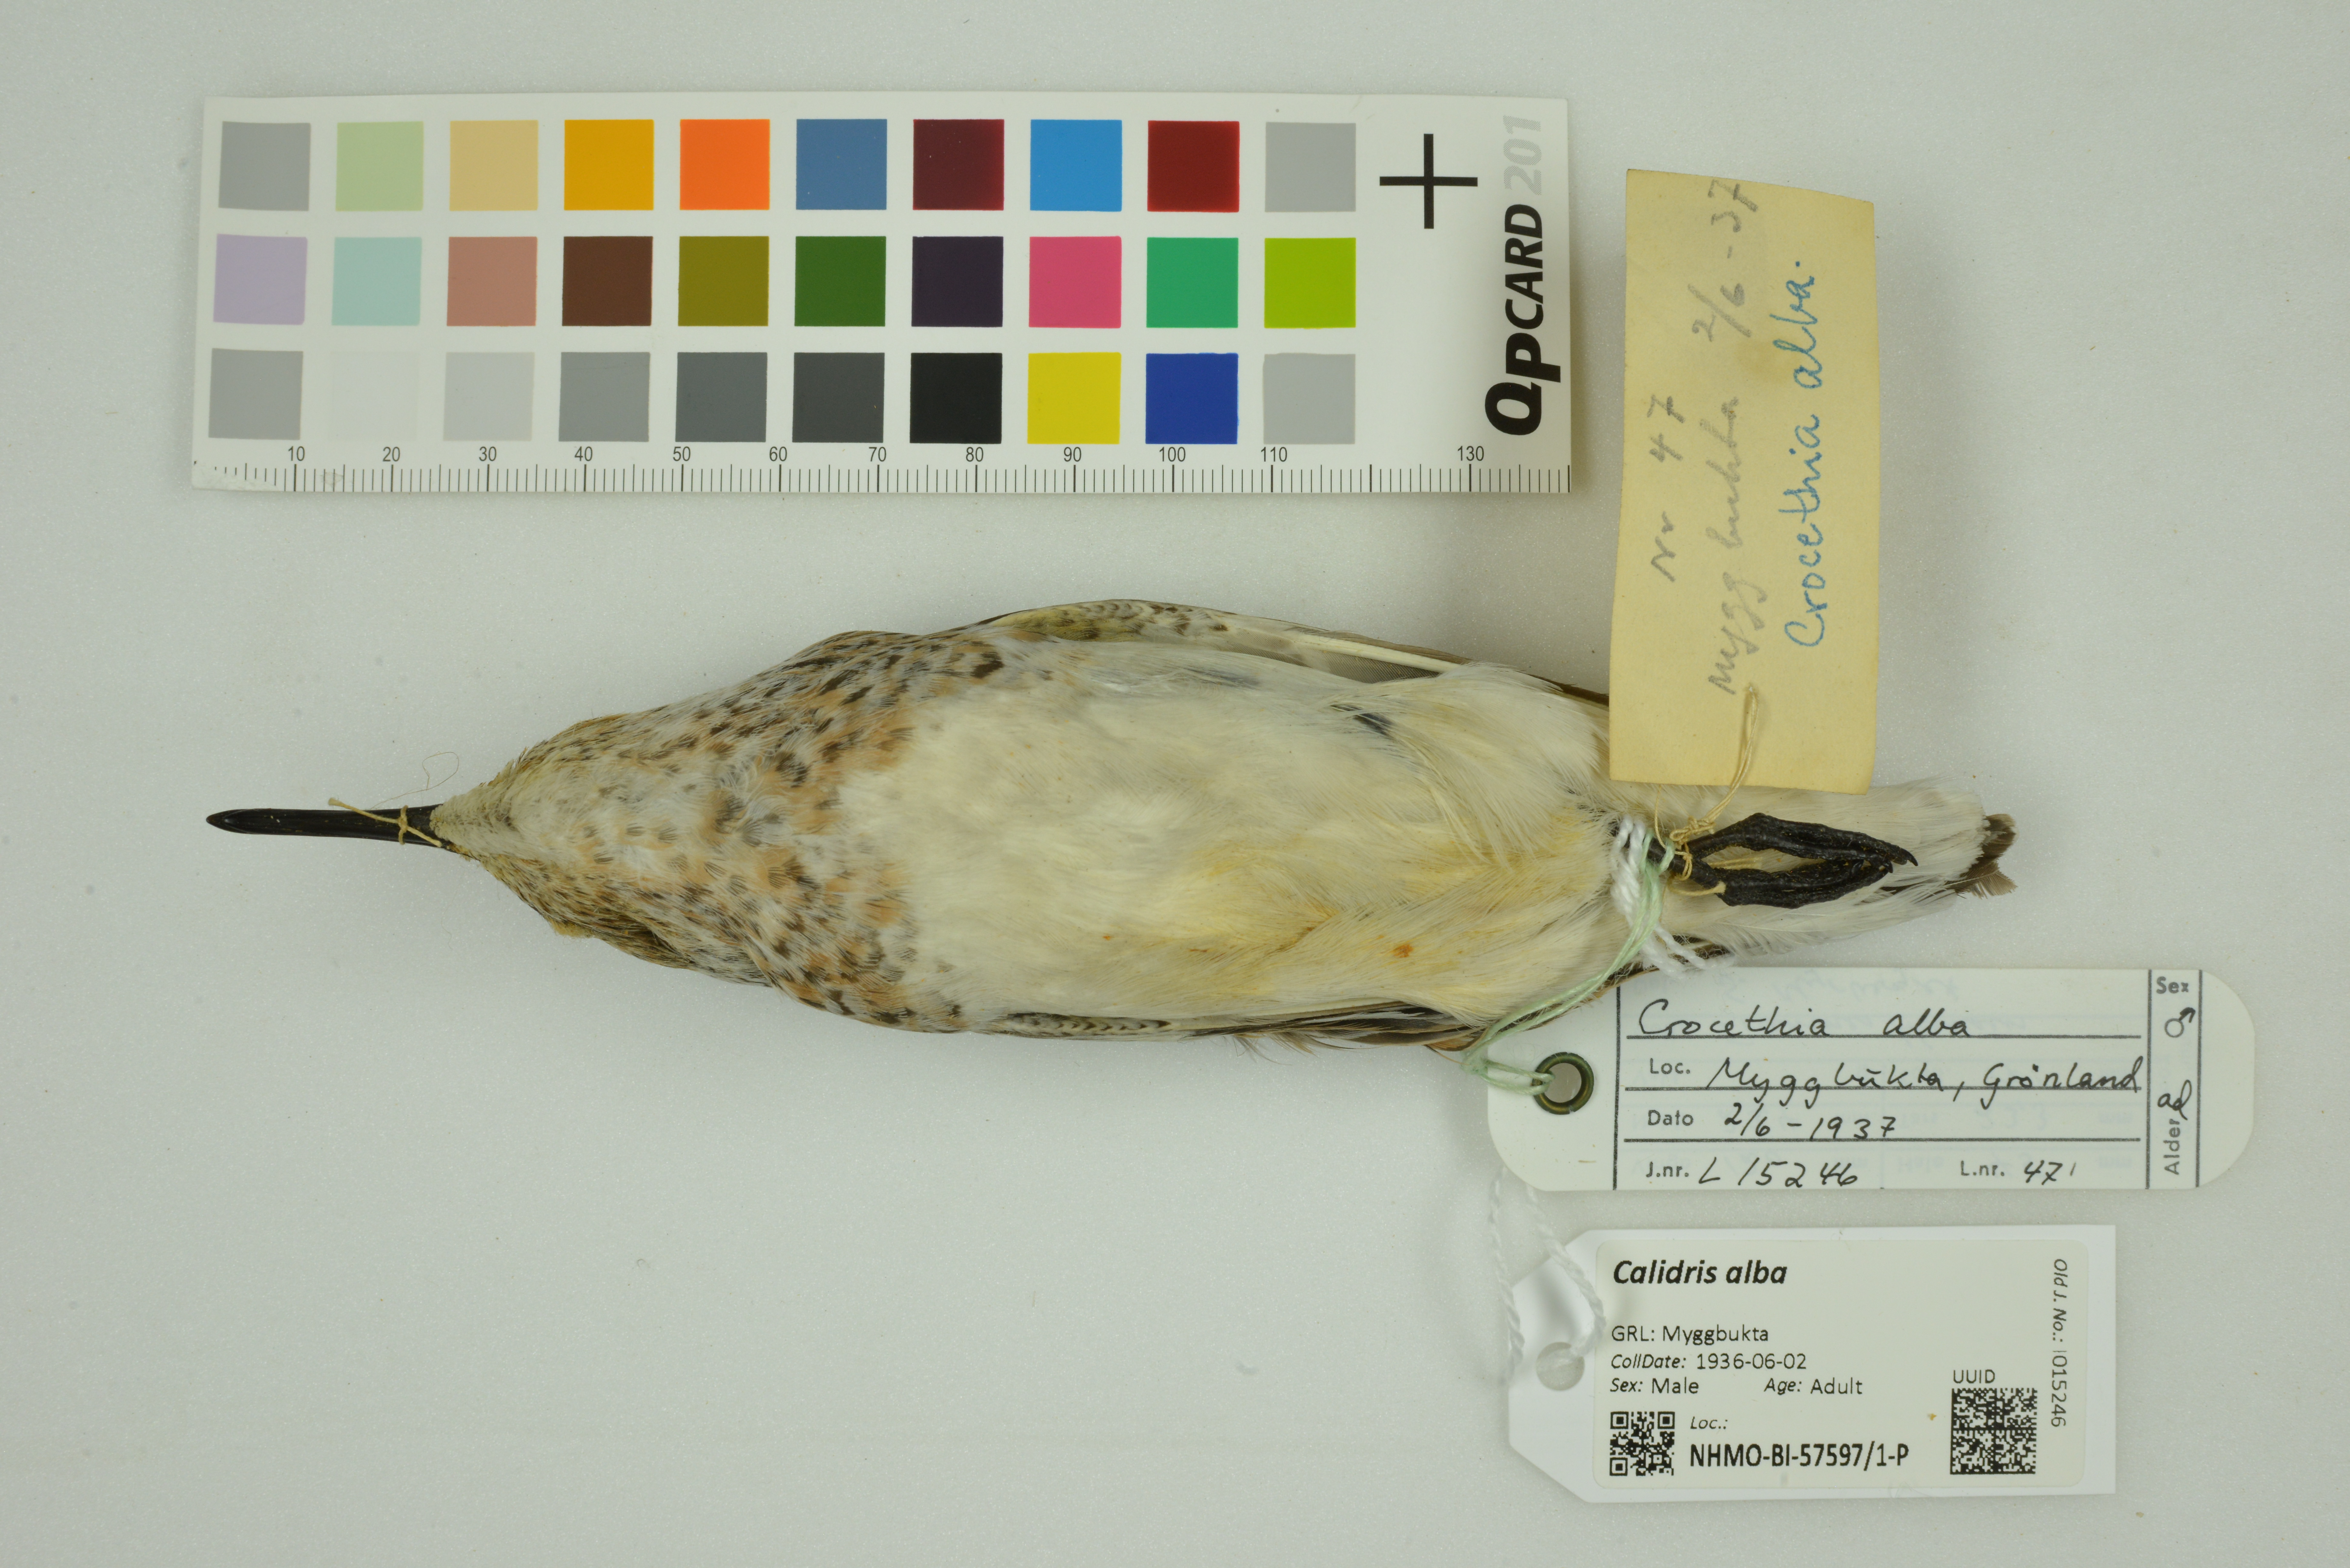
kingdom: Animalia
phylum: Chordata
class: Aves
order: Charadriiformes
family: Scolopacidae
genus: Calidris
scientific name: Calidris alba
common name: Sanderling
